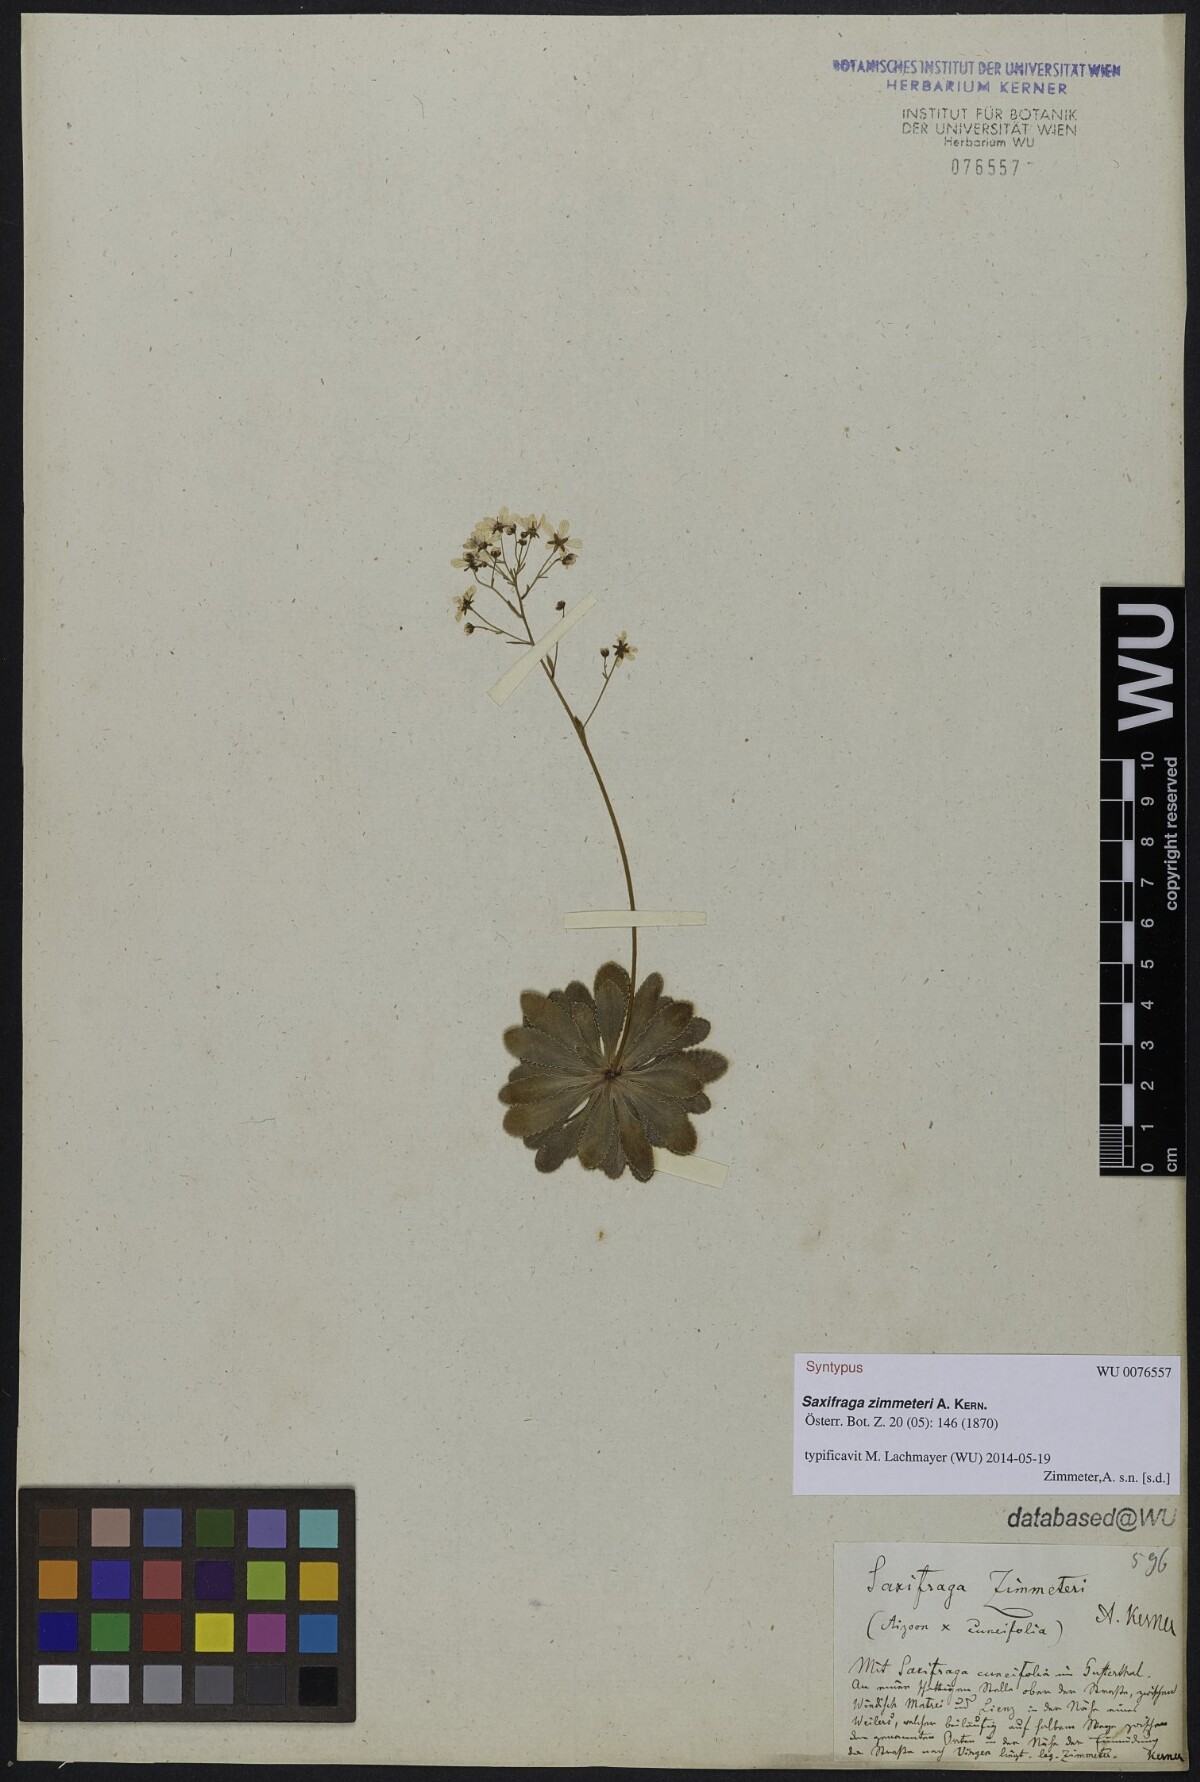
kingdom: Plantae
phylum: Tracheophyta
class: Magnoliopsida
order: Saxifragales
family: Saxifragaceae
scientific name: Saxifragaceae
